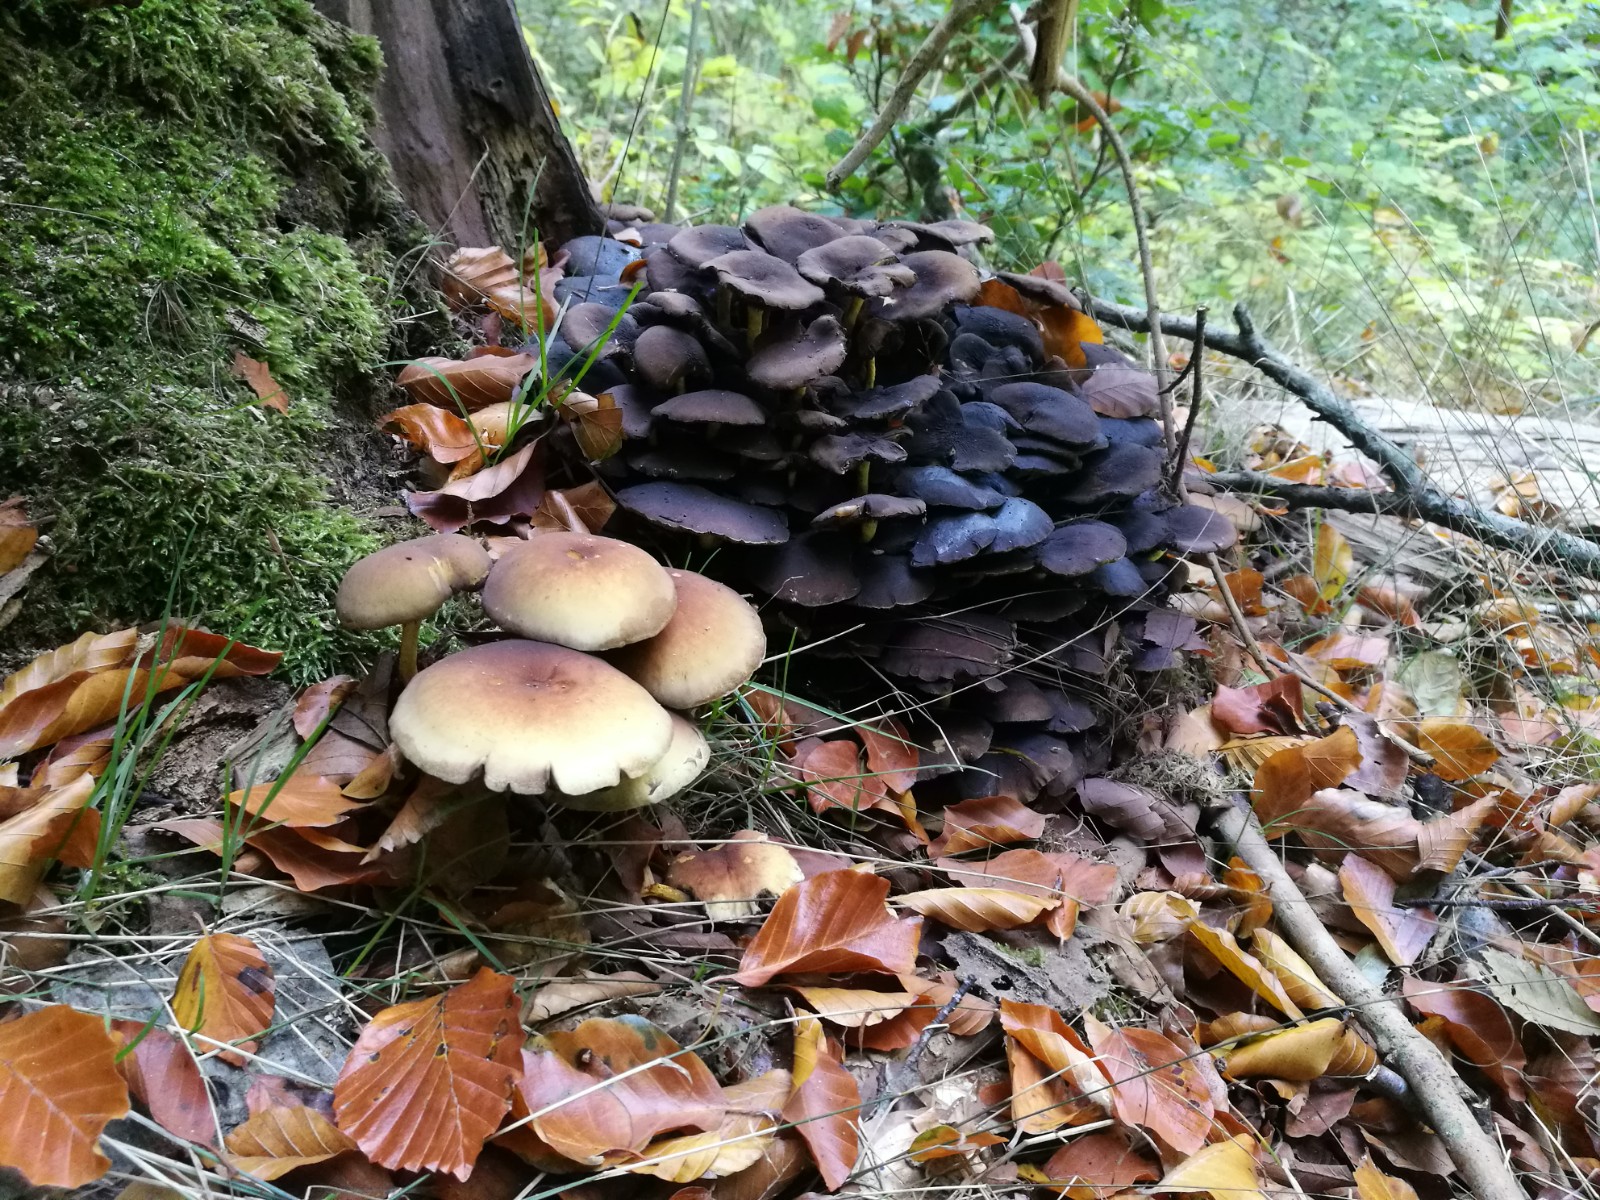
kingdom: Fungi
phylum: Basidiomycota
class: Agaricomycetes
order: Agaricales
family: Strophariaceae
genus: Hypholoma
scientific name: Hypholoma fasciculare
